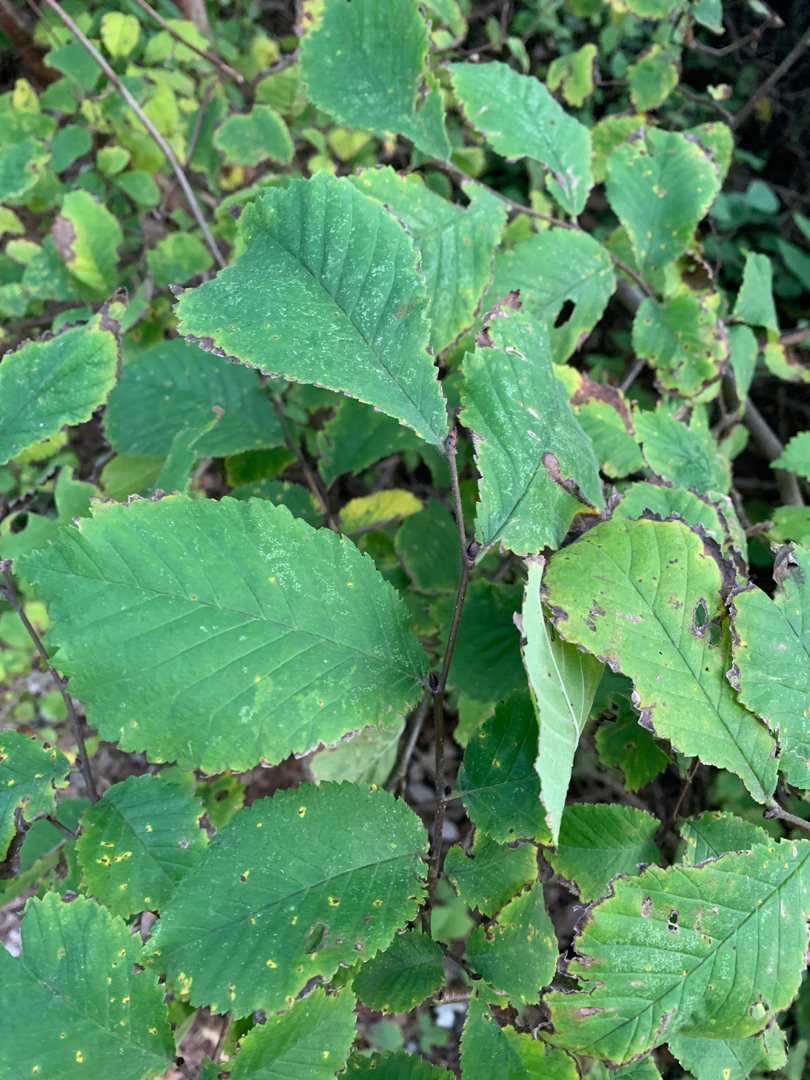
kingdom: Plantae
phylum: Tracheophyta
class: Magnoliopsida
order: Rosales
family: Ulmaceae
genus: Ulmus
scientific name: Ulmus glabra
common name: Skov-elm/storbladet elm
